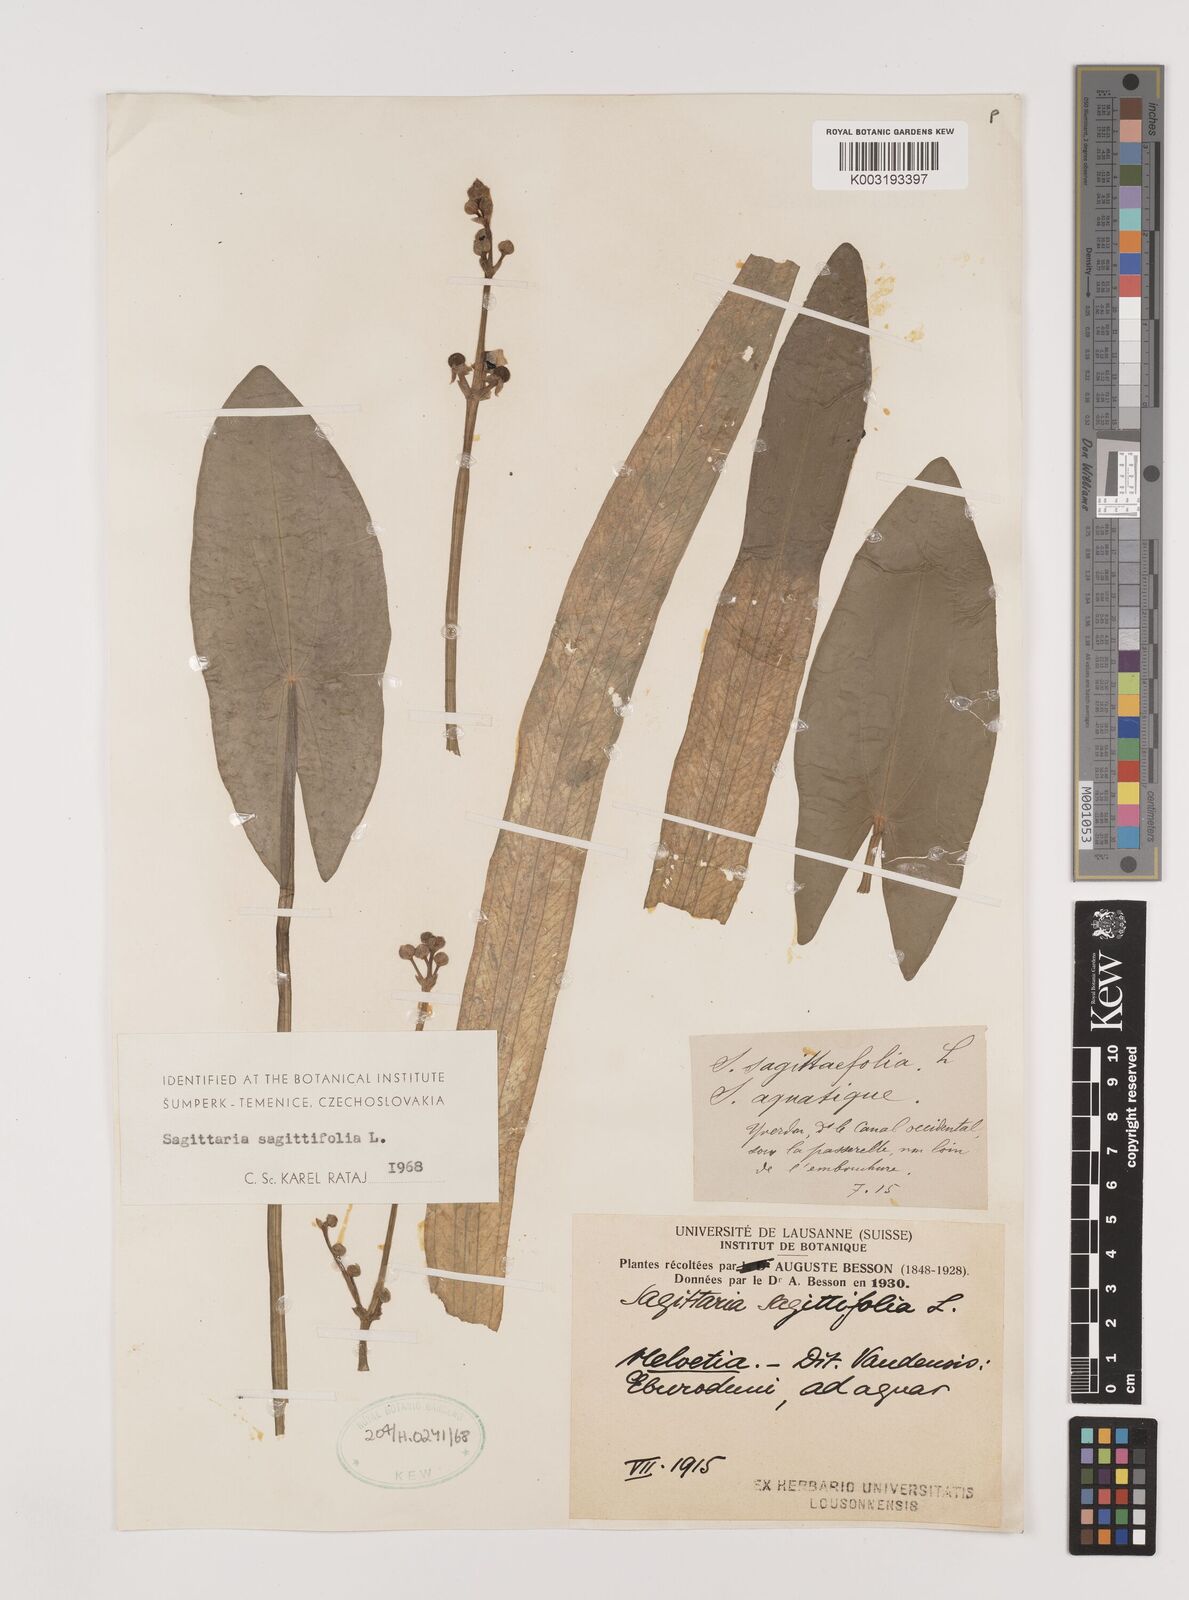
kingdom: Plantae
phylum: Tracheophyta
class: Liliopsida
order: Alismatales
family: Alismataceae
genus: Sagittaria
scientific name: Sagittaria sagittifolia
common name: Arrowhead
